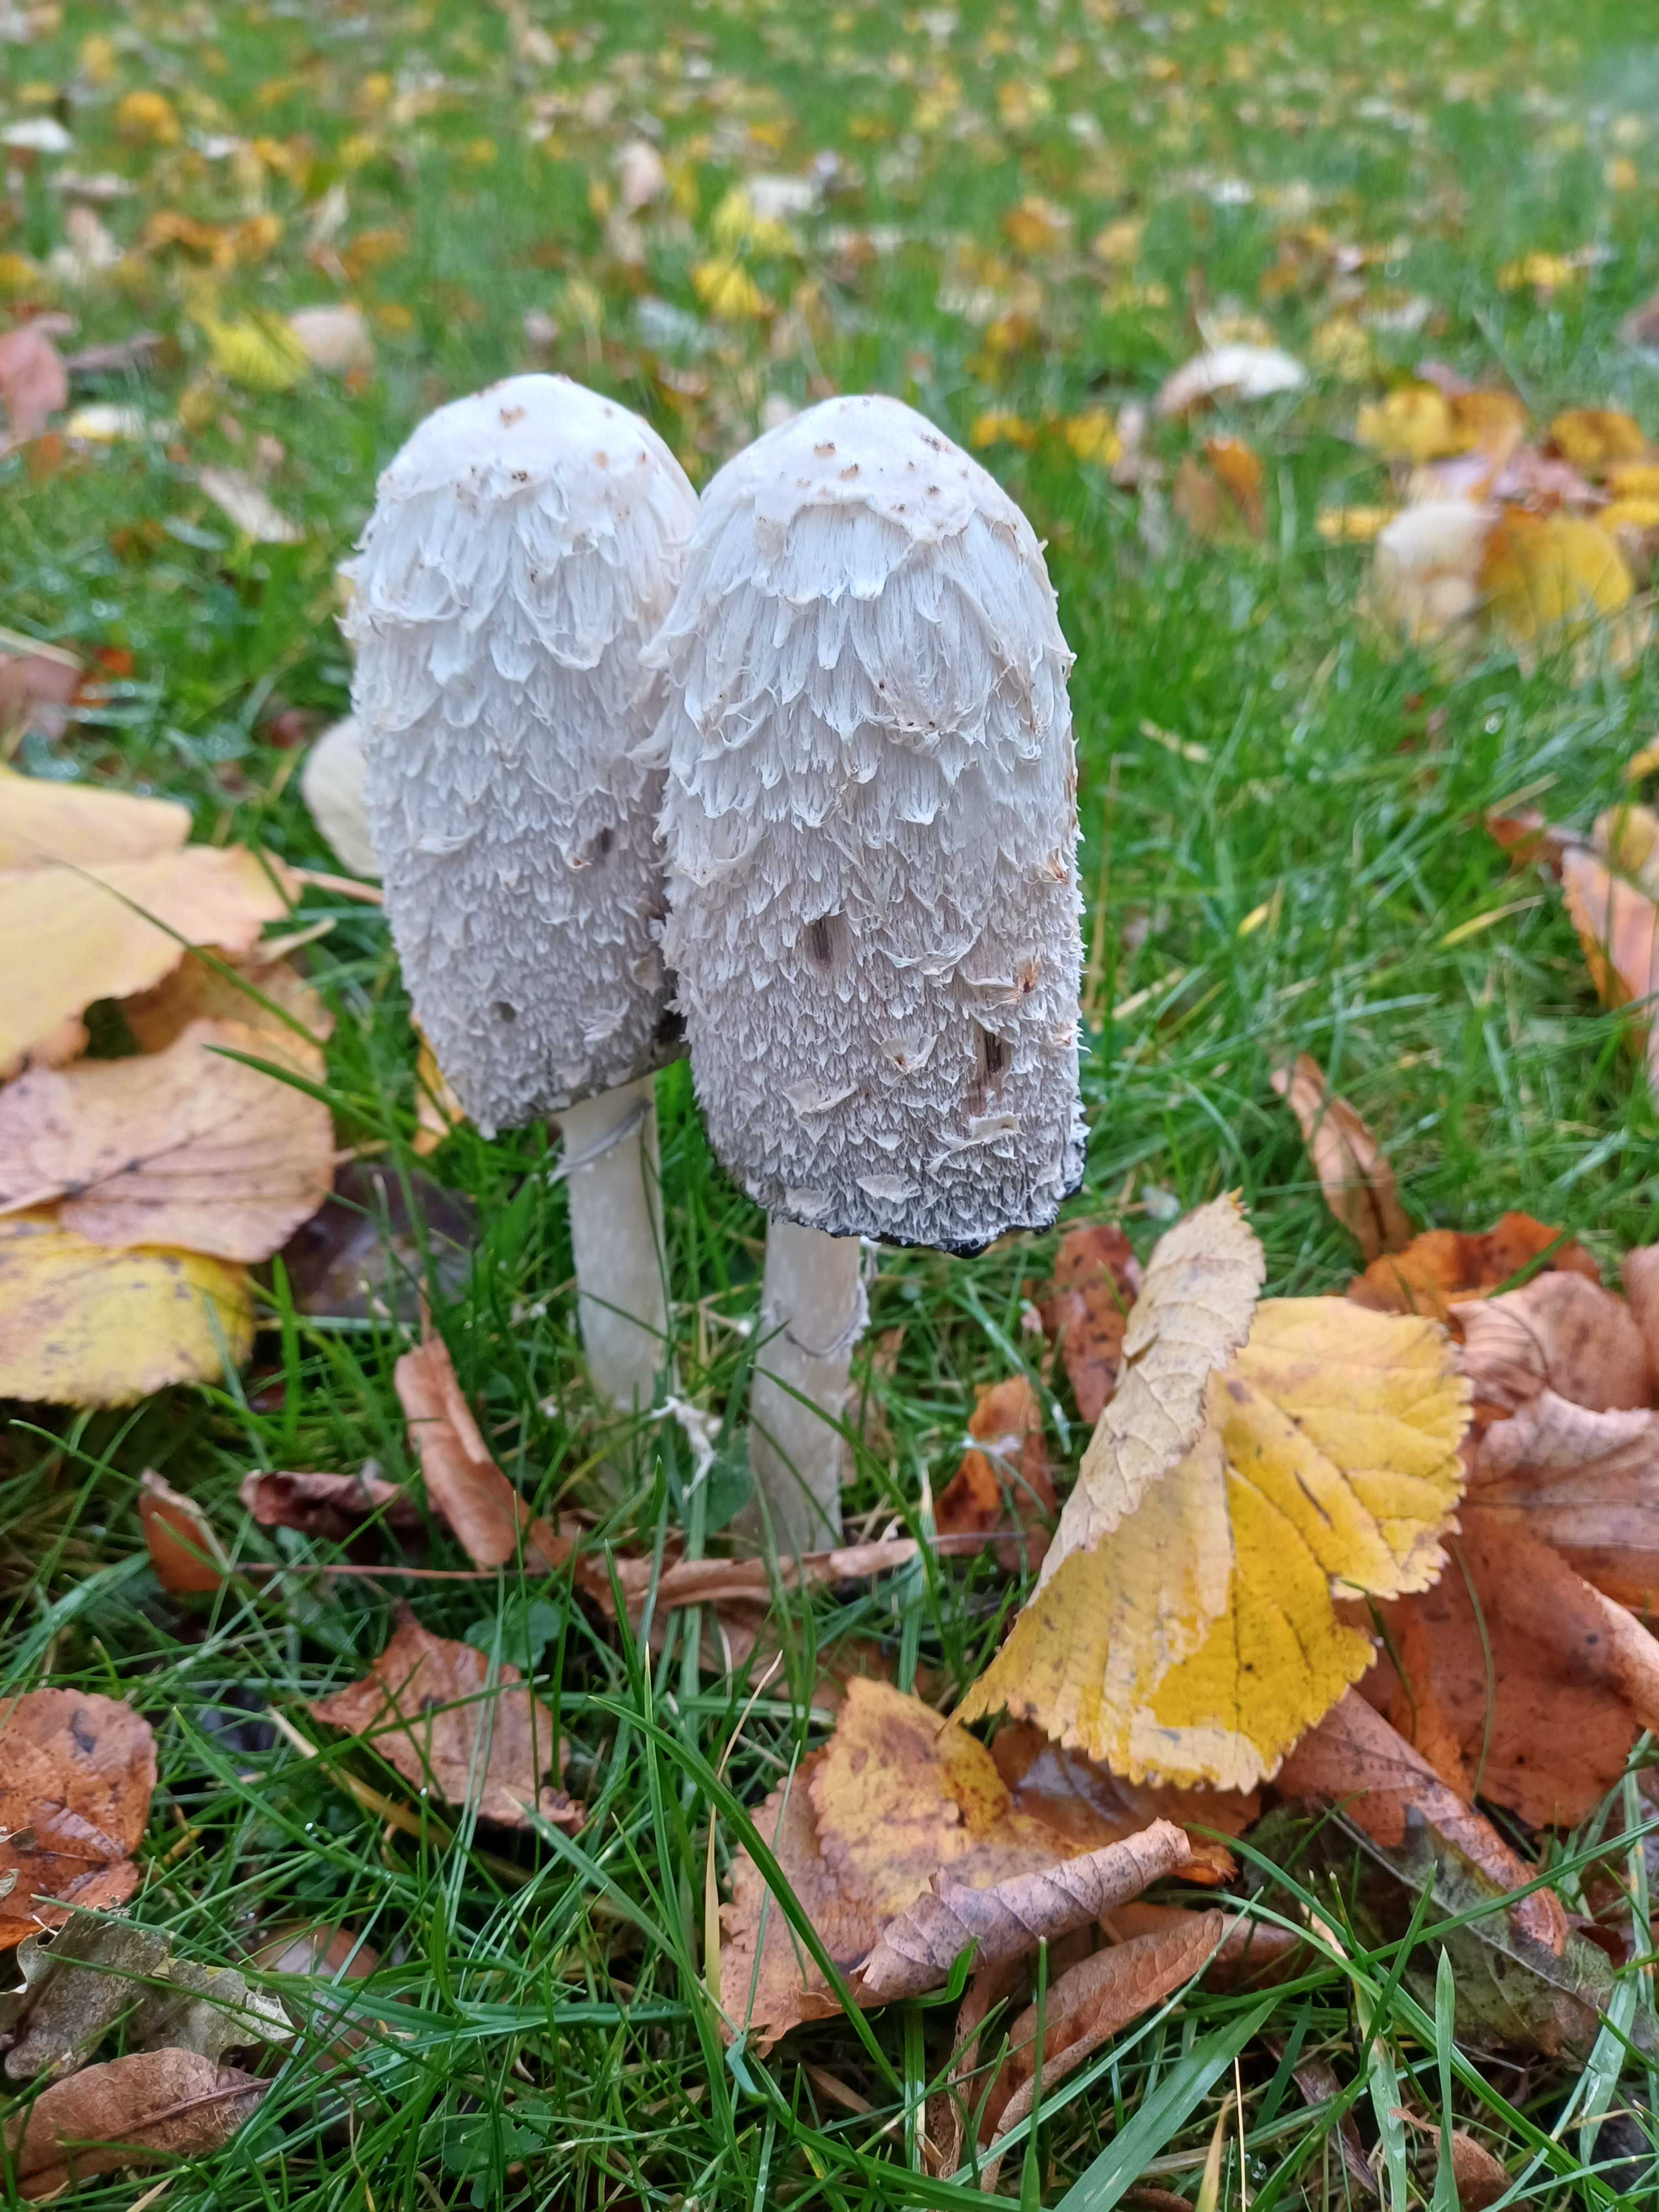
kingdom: Fungi
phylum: Basidiomycota
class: Agaricomycetes
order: Agaricales
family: Agaricaceae
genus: Coprinus
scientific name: Coprinus comatus
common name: stor parykhat
